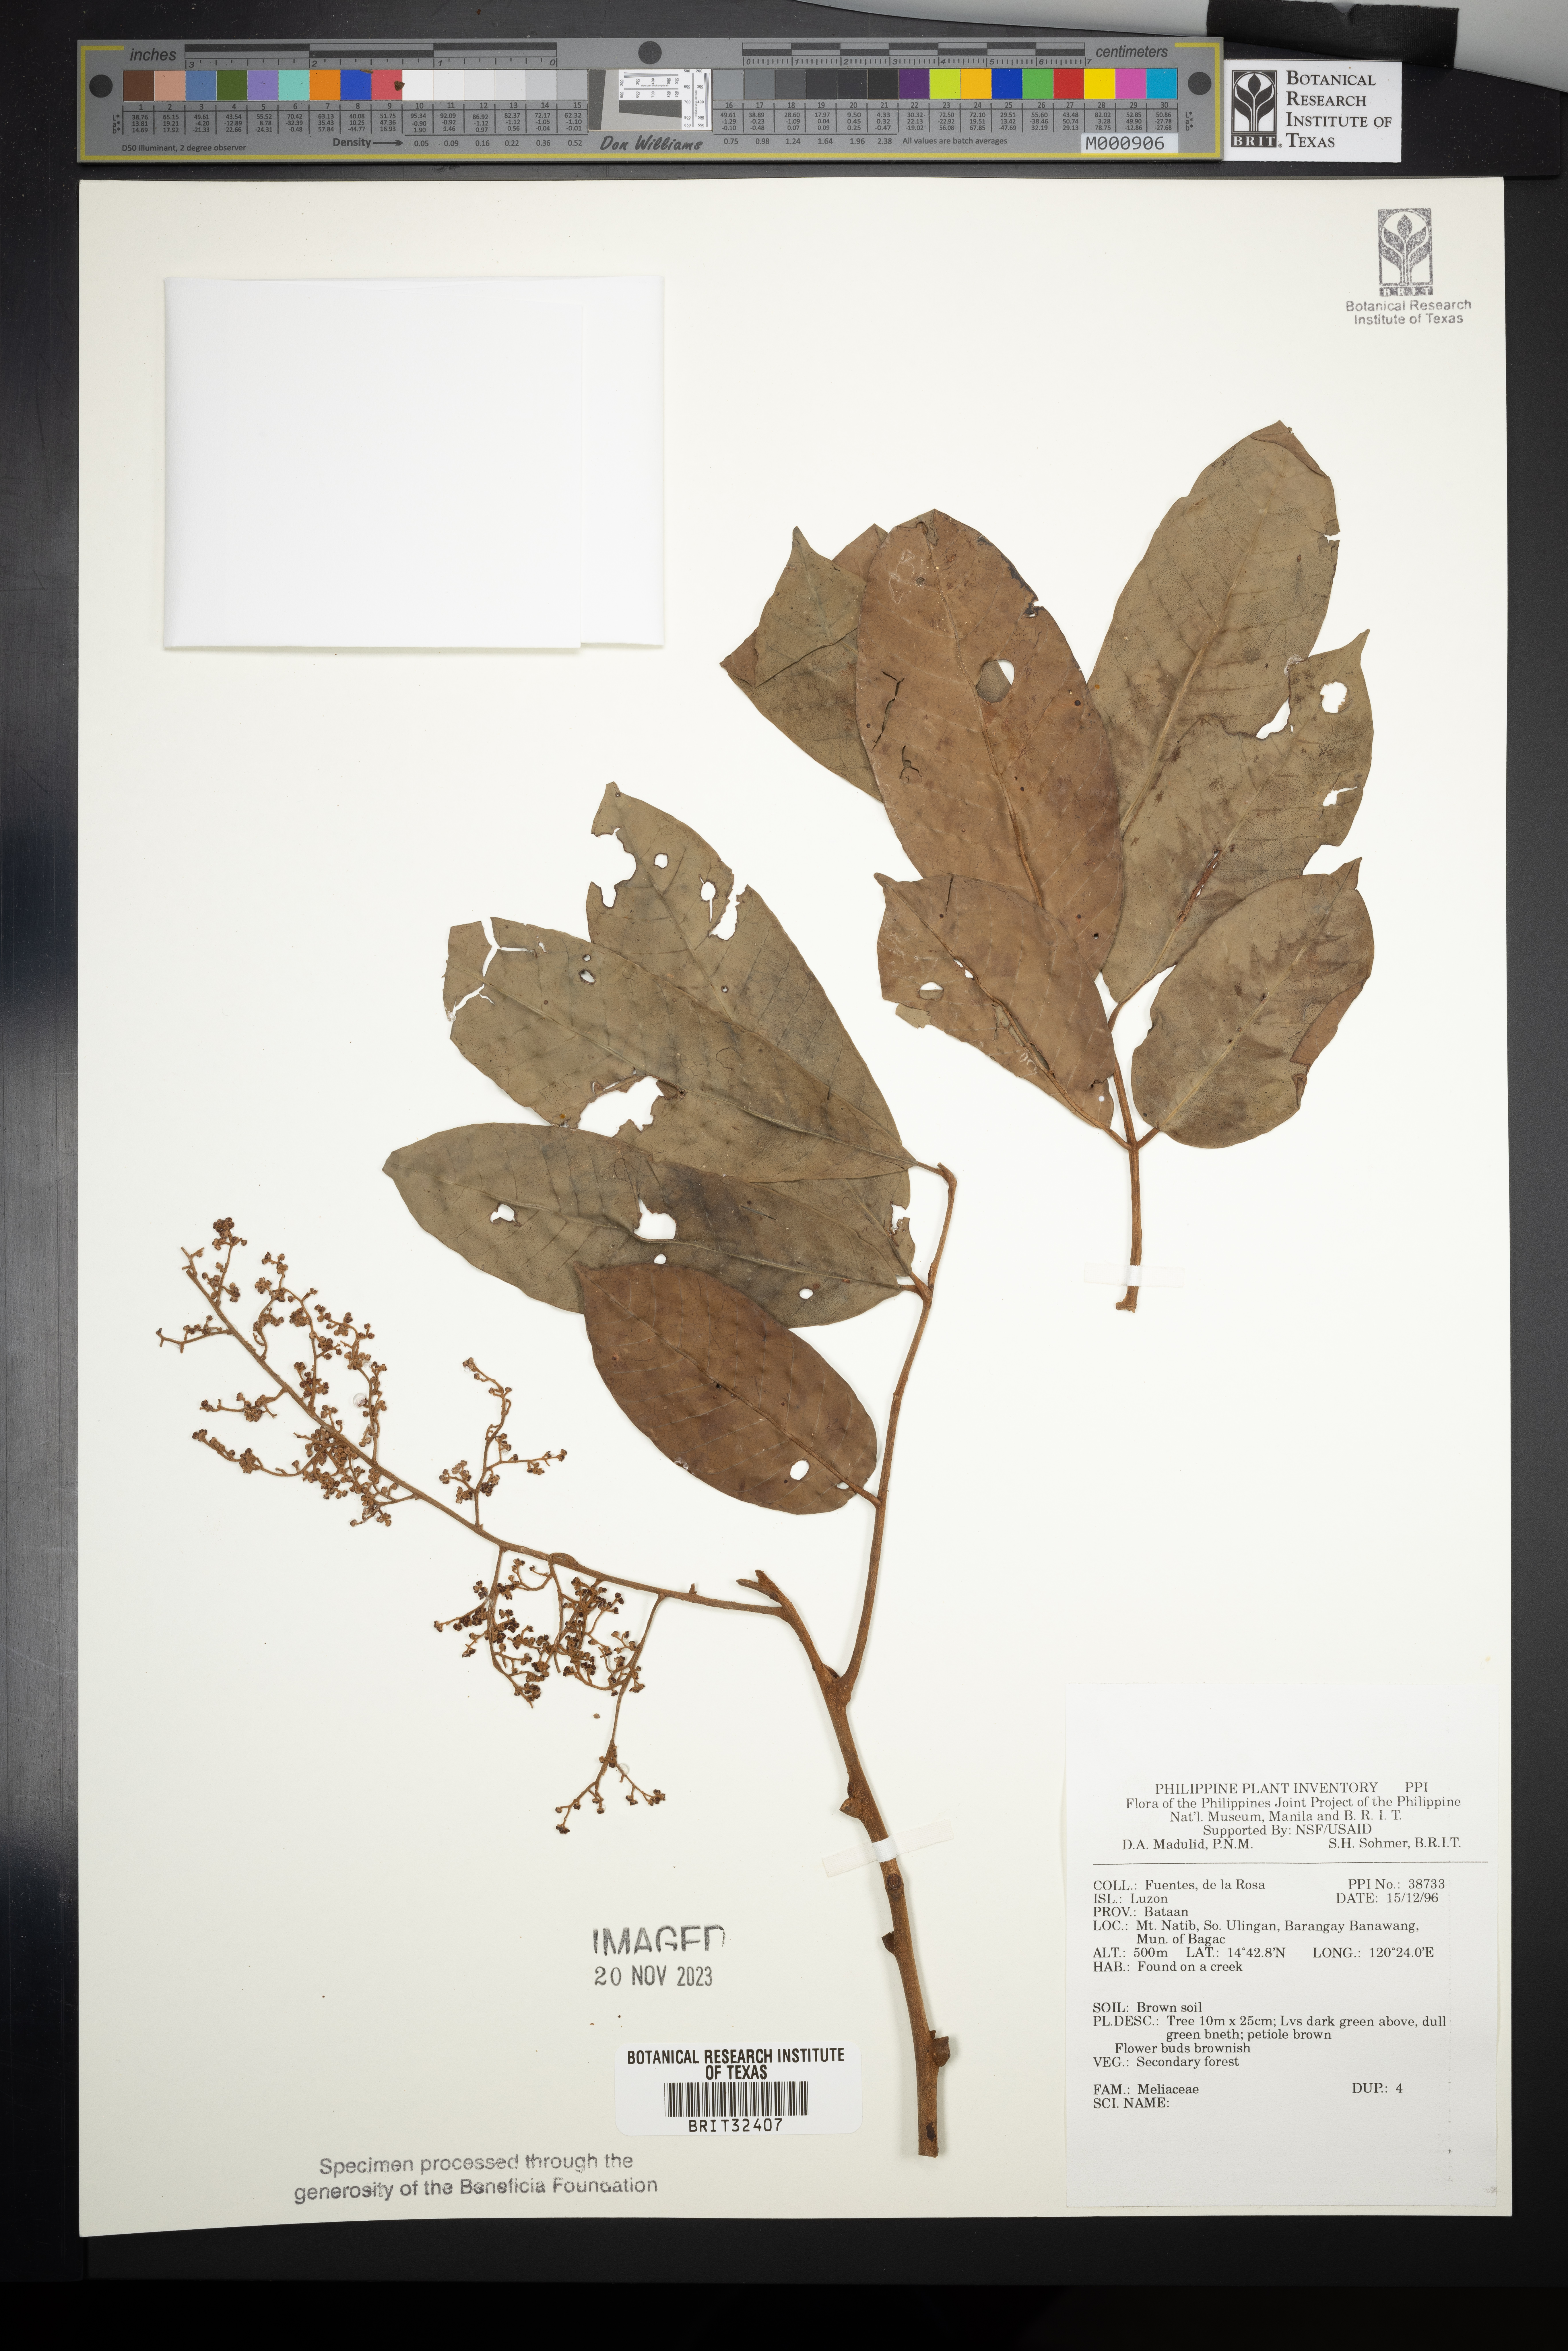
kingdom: Plantae
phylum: Tracheophyta
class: Magnoliopsida
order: Sapindales
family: Meliaceae
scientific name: Meliaceae
